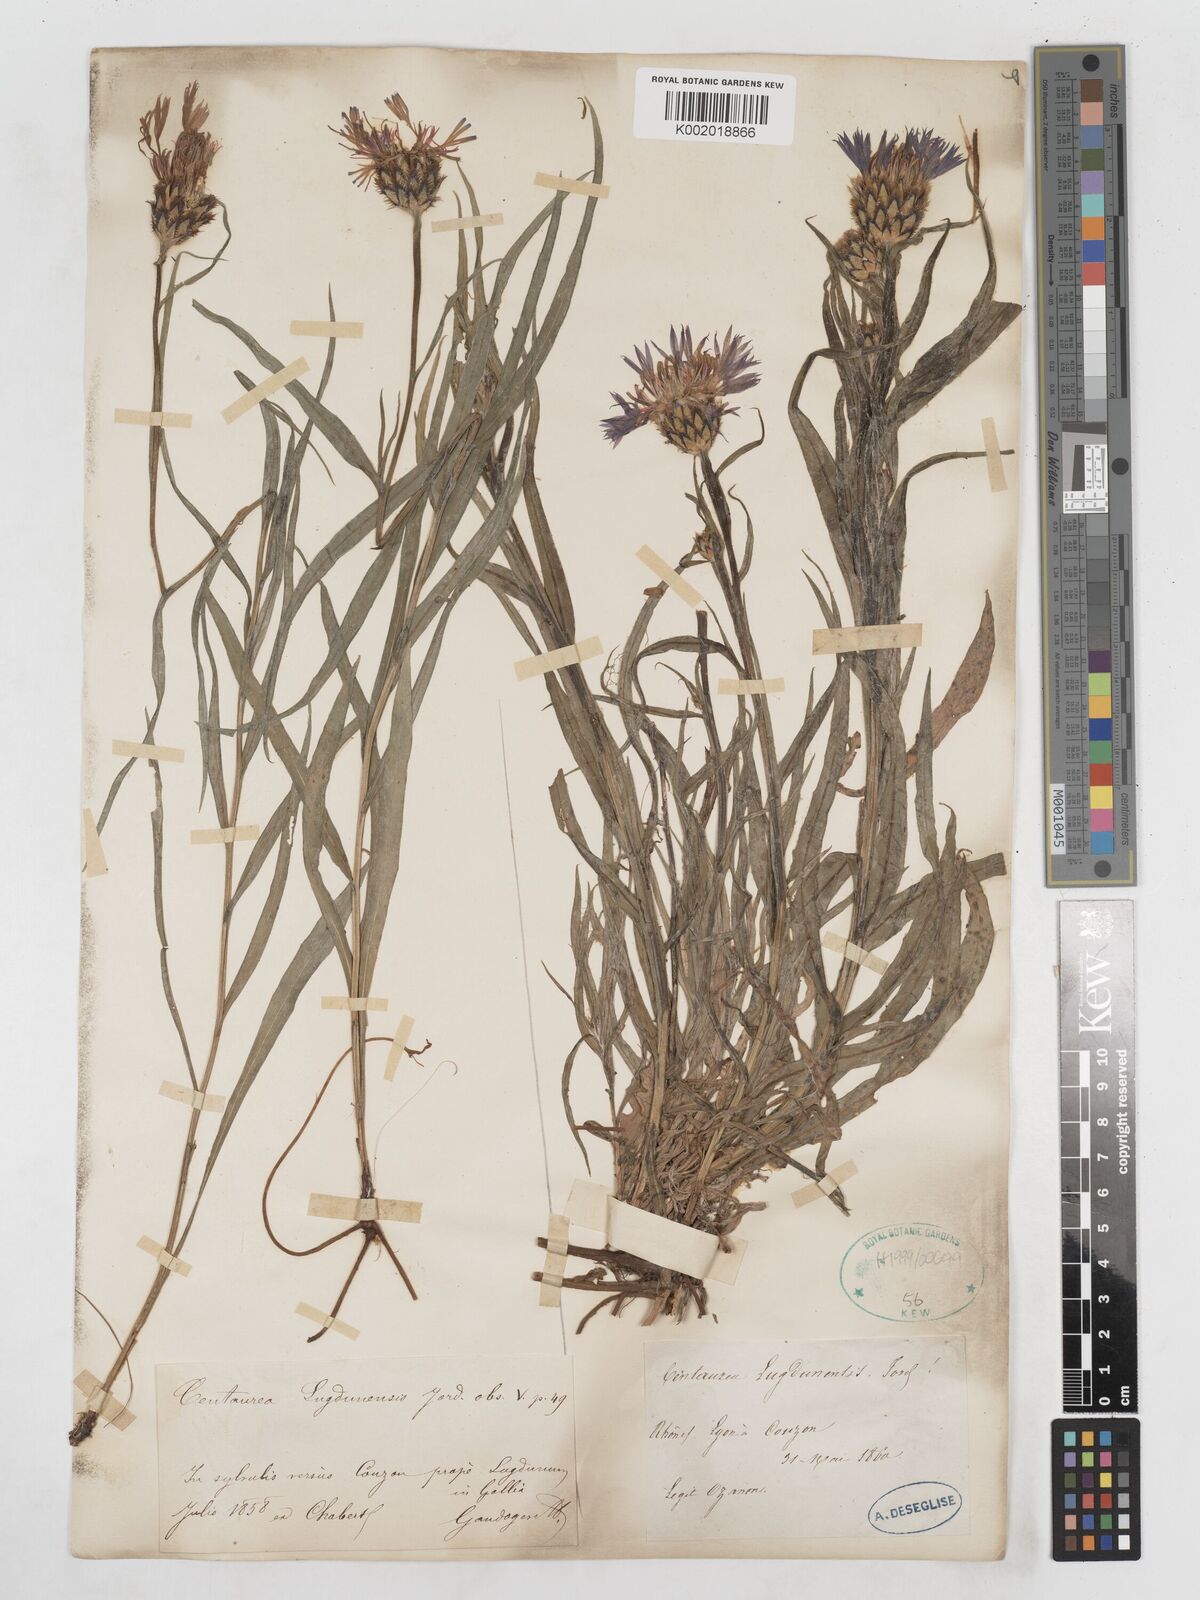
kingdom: Plantae
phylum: Tracheophyta
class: Magnoliopsida
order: Asterales
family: Asteraceae
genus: Centaurea
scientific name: Centaurea lugdunensis
